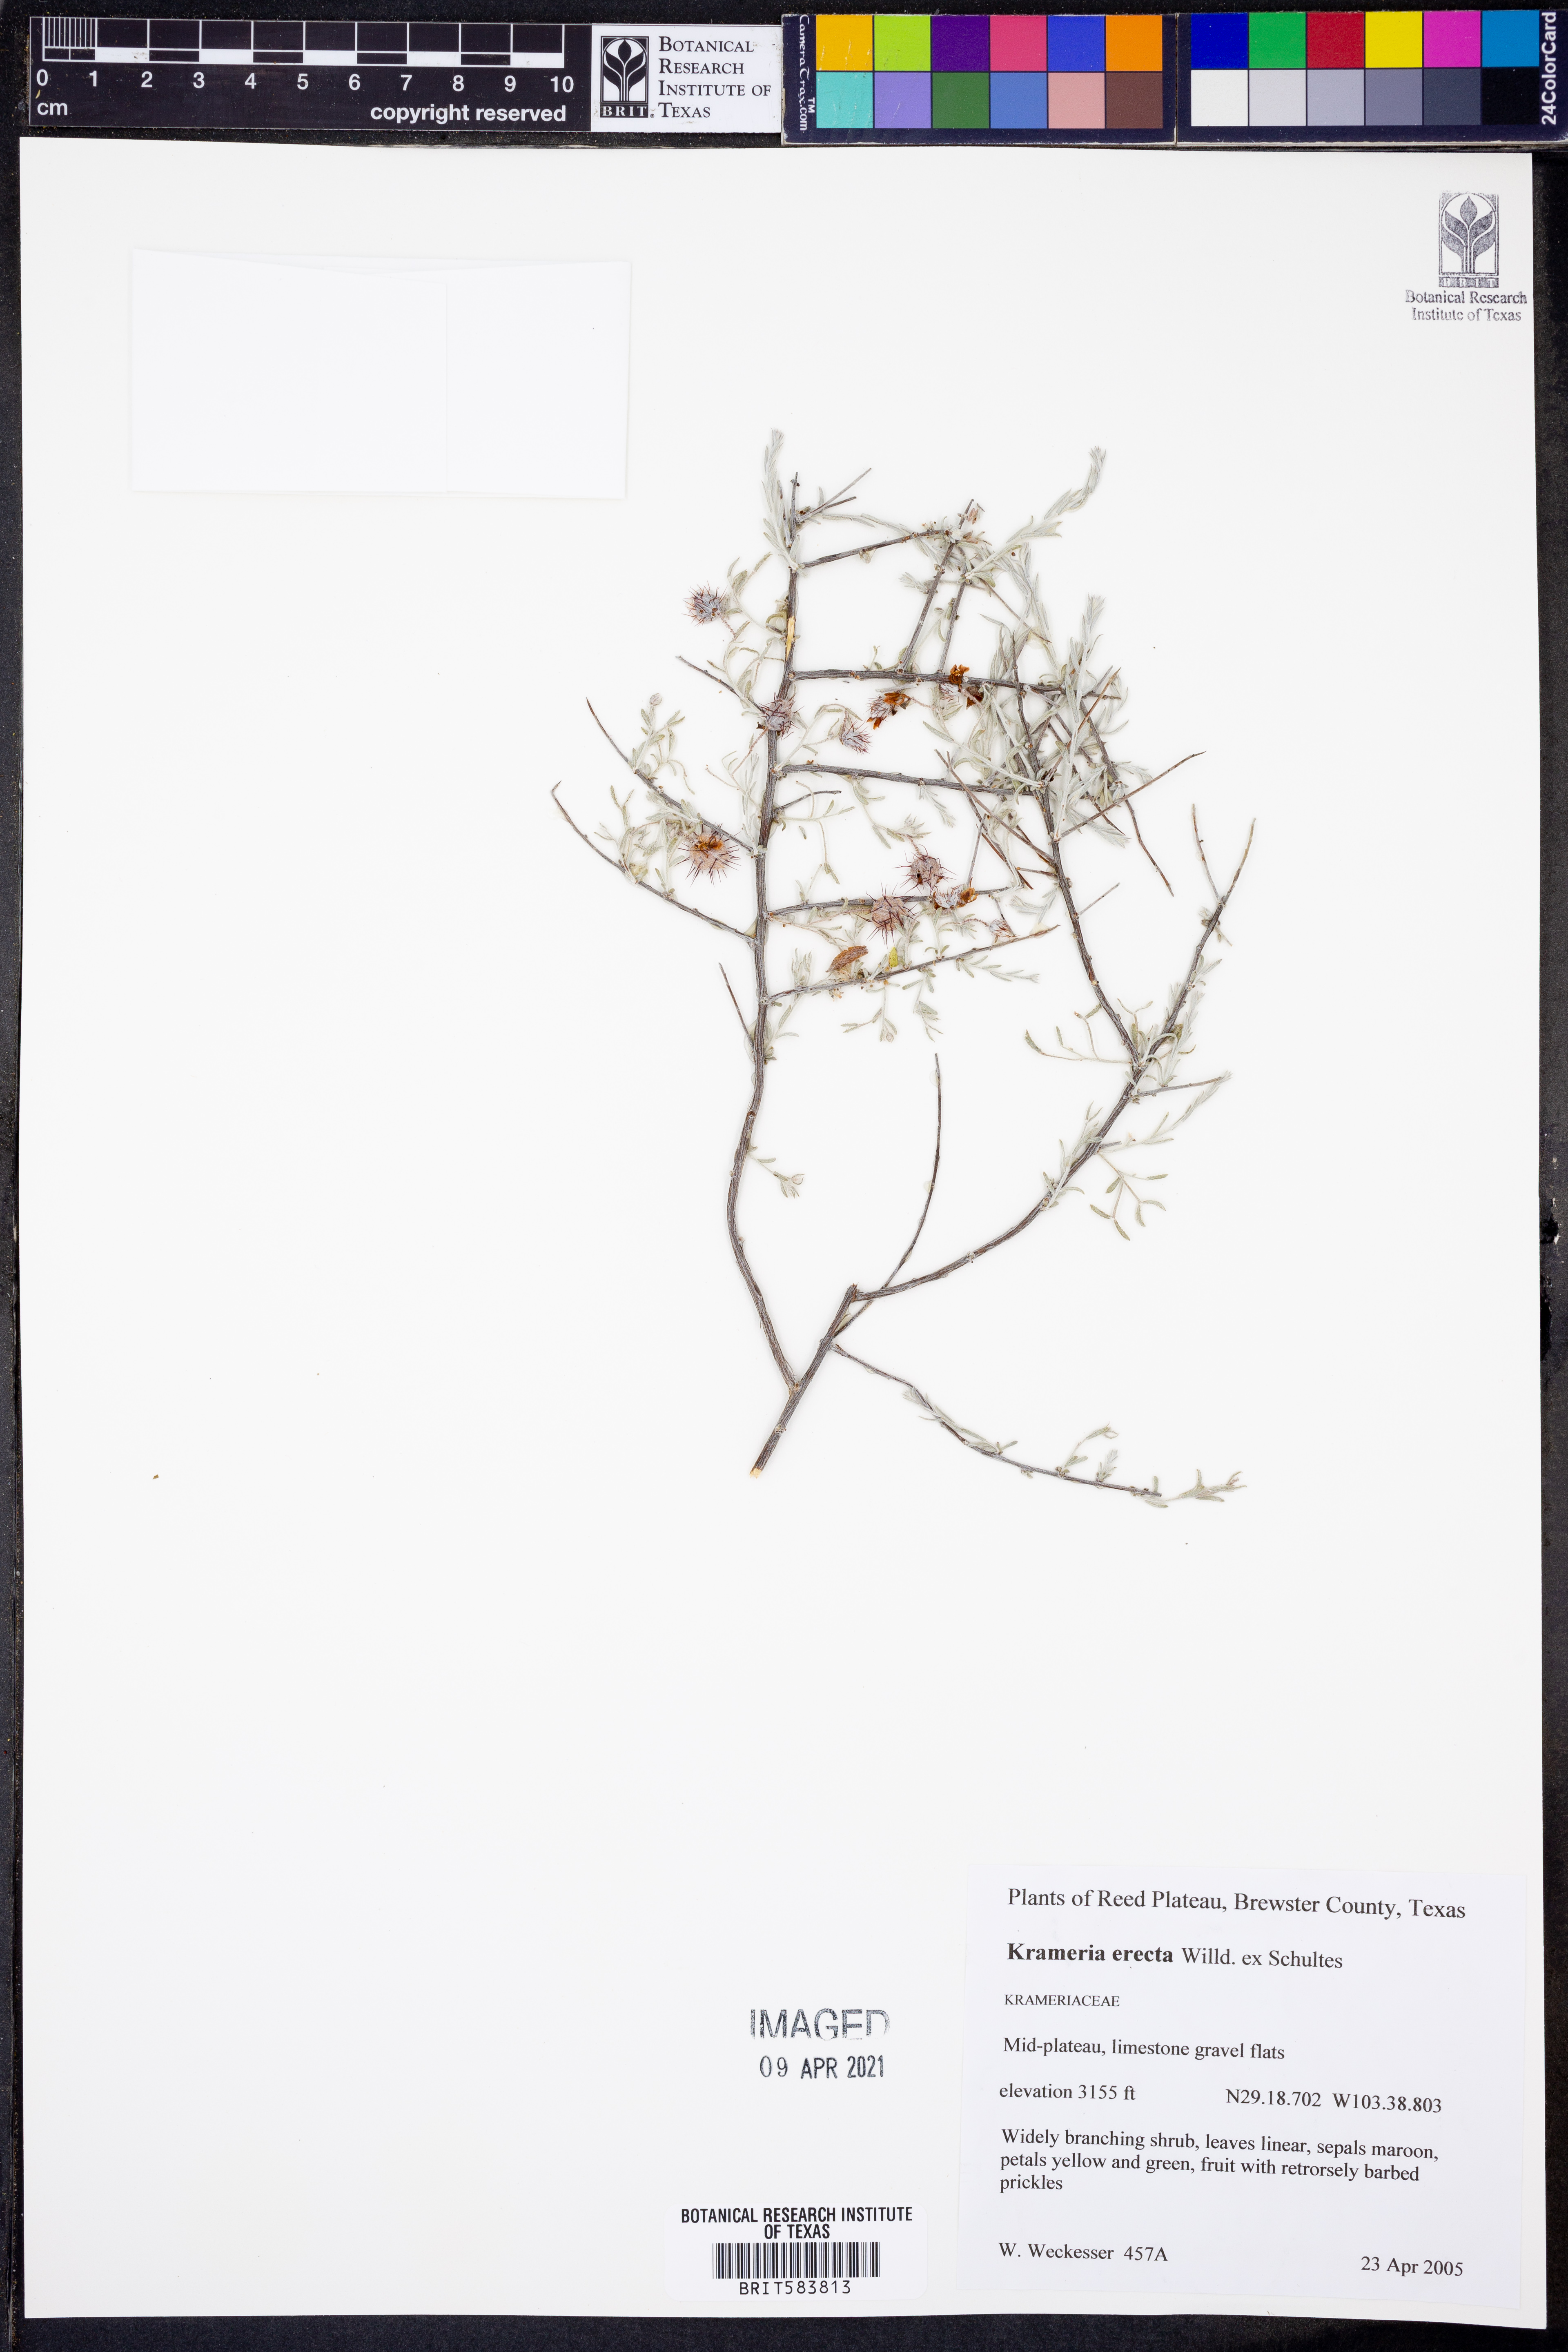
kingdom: Plantae
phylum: Tracheophyta
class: Magnoliopsida
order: Zygophyllales
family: Krameriaceae
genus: Krameria
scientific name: Krameria erecta
